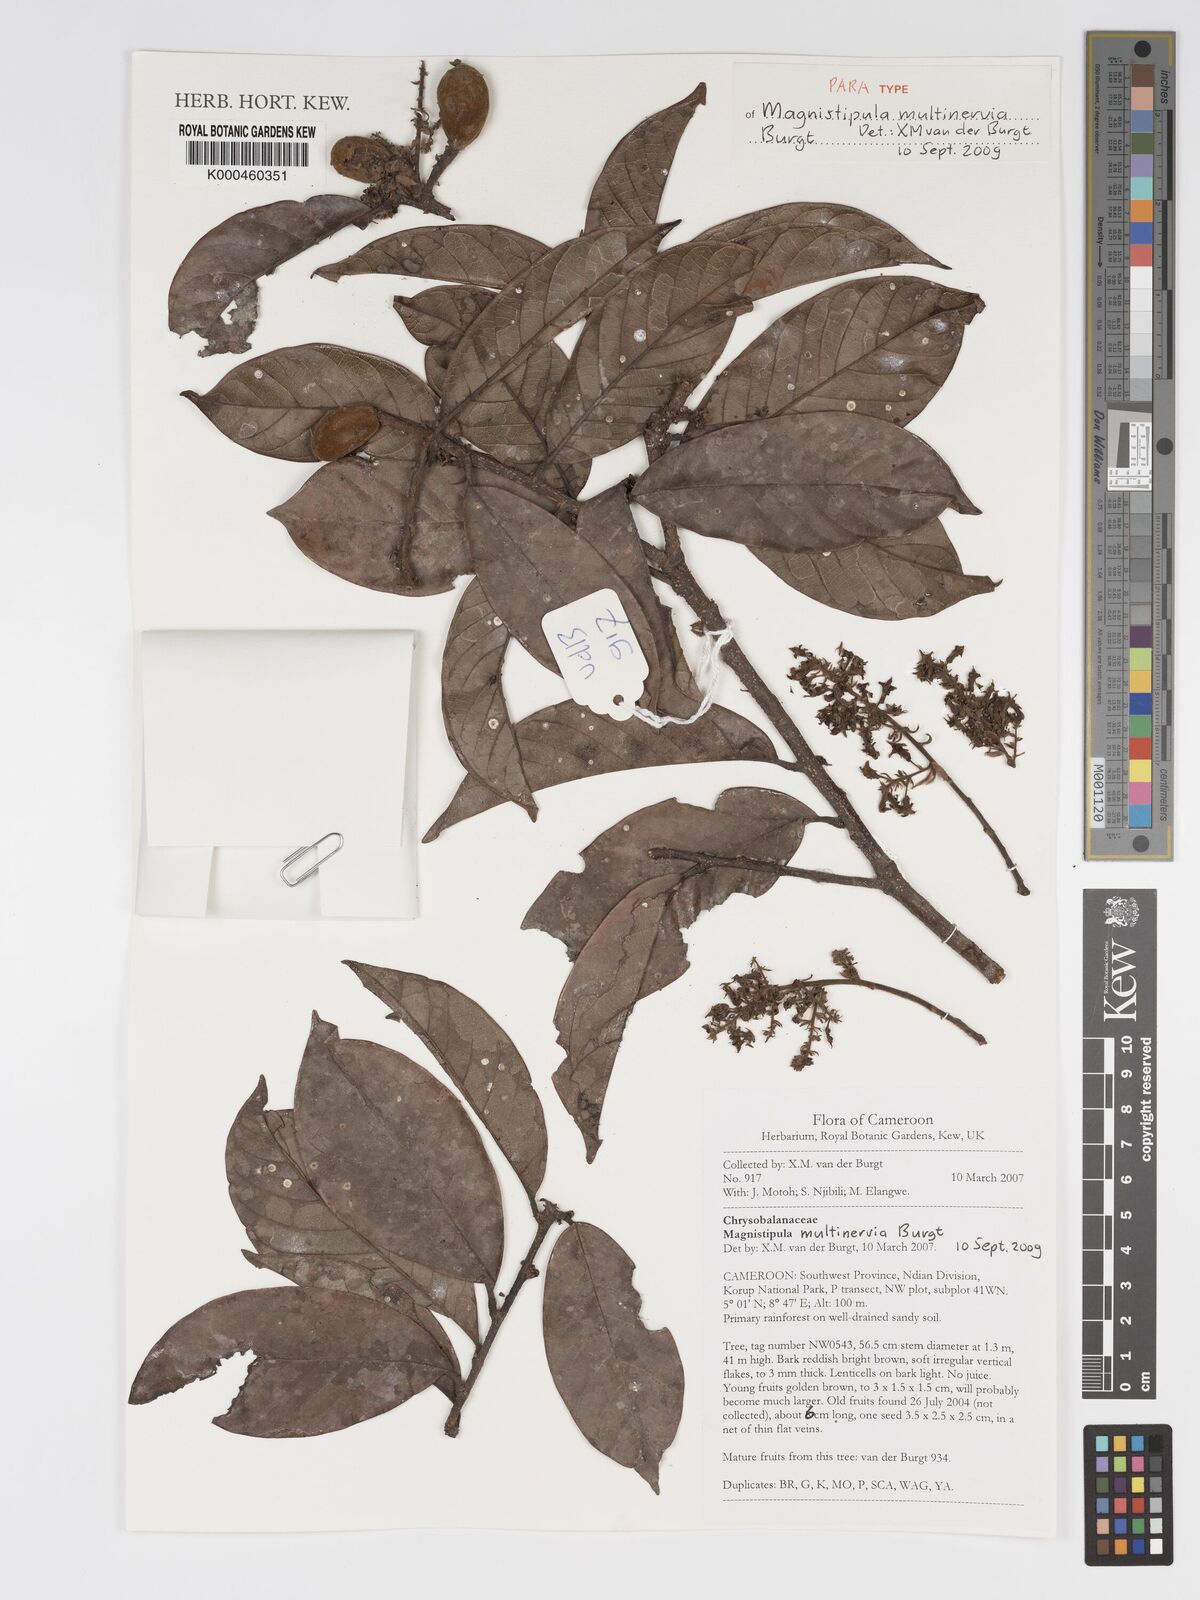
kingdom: Plantae
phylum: Tracheophyta
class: Magnoliopsida
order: Malpighiales
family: Chrysobalanaceae
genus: Magnistipula
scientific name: Magnistipula multinervia
